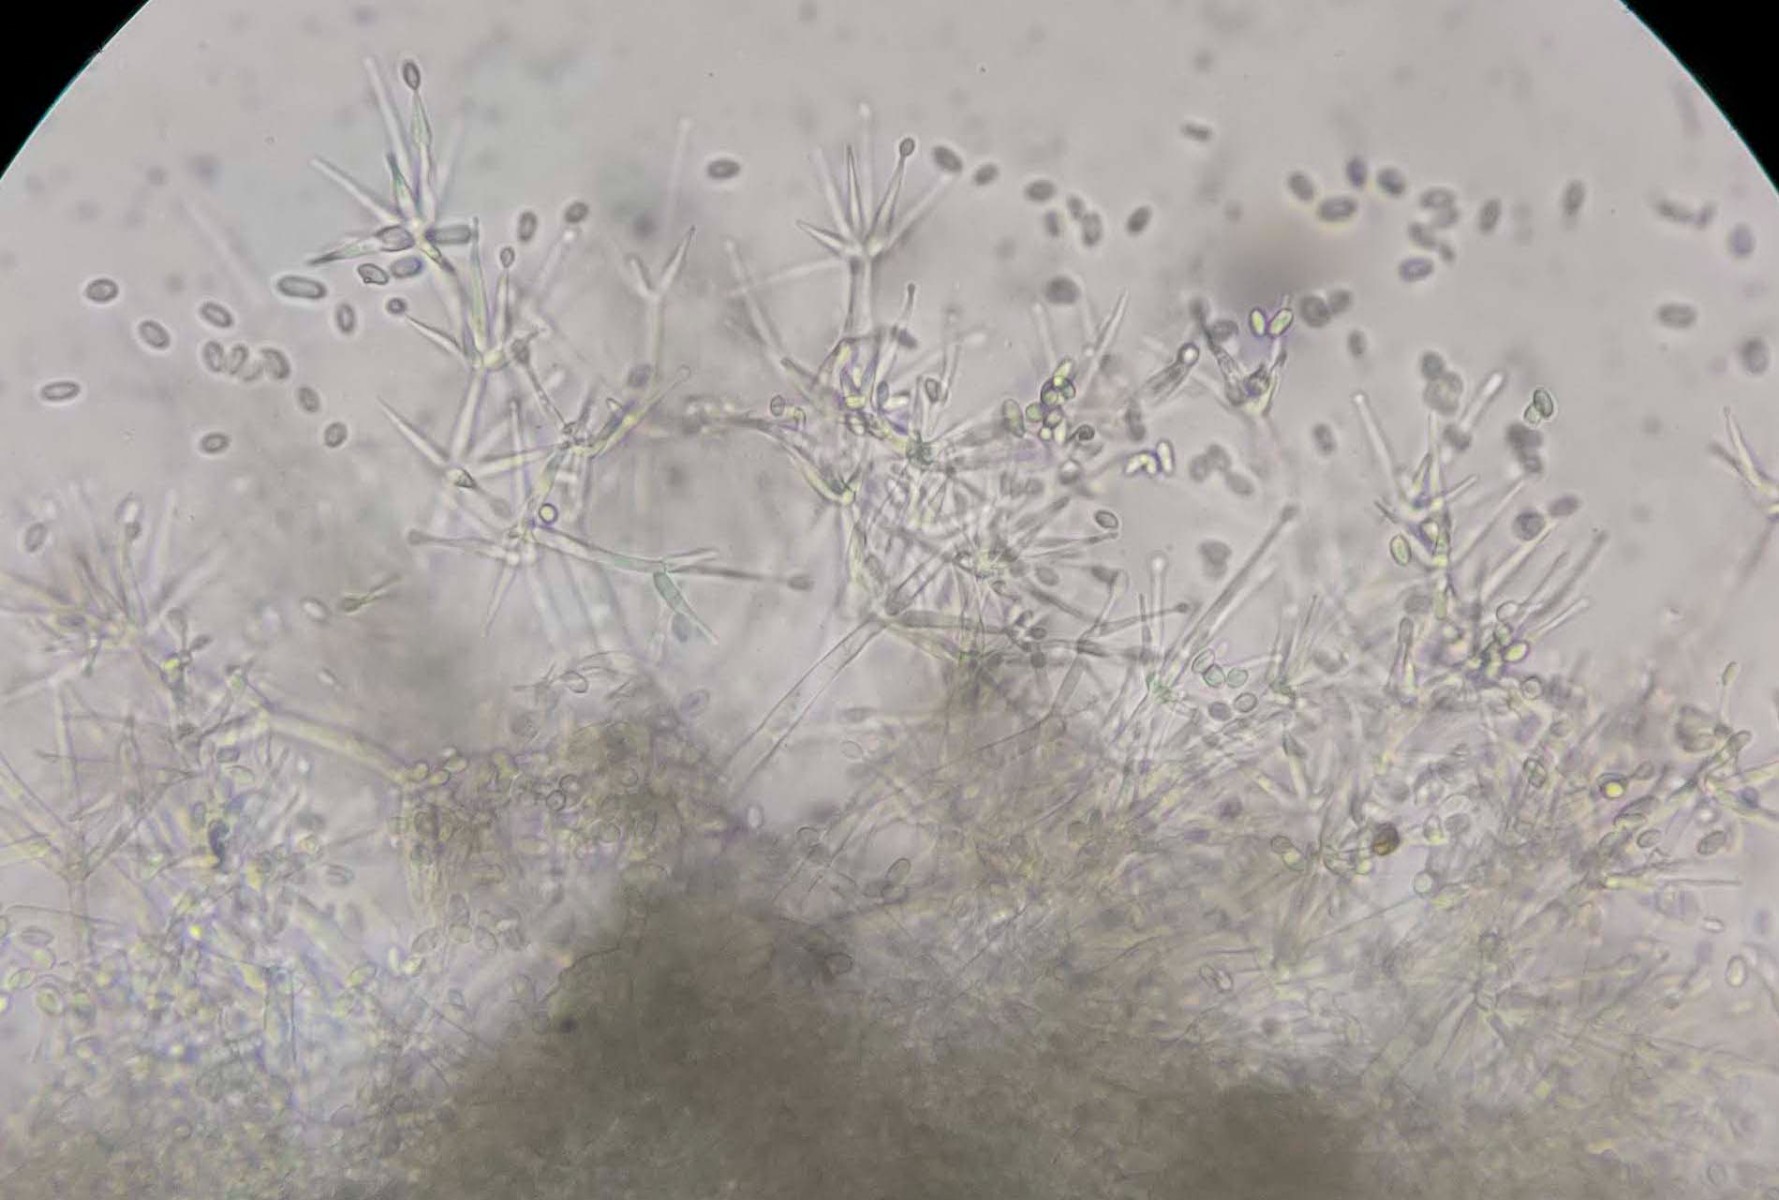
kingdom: Fungi
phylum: Ascomycota
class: Sordariomycetes
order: Hypocreales
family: Hypocreaceae
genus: Hypomyces
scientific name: Hypomyces tubariicola
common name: fnughat-snylteskorpe
